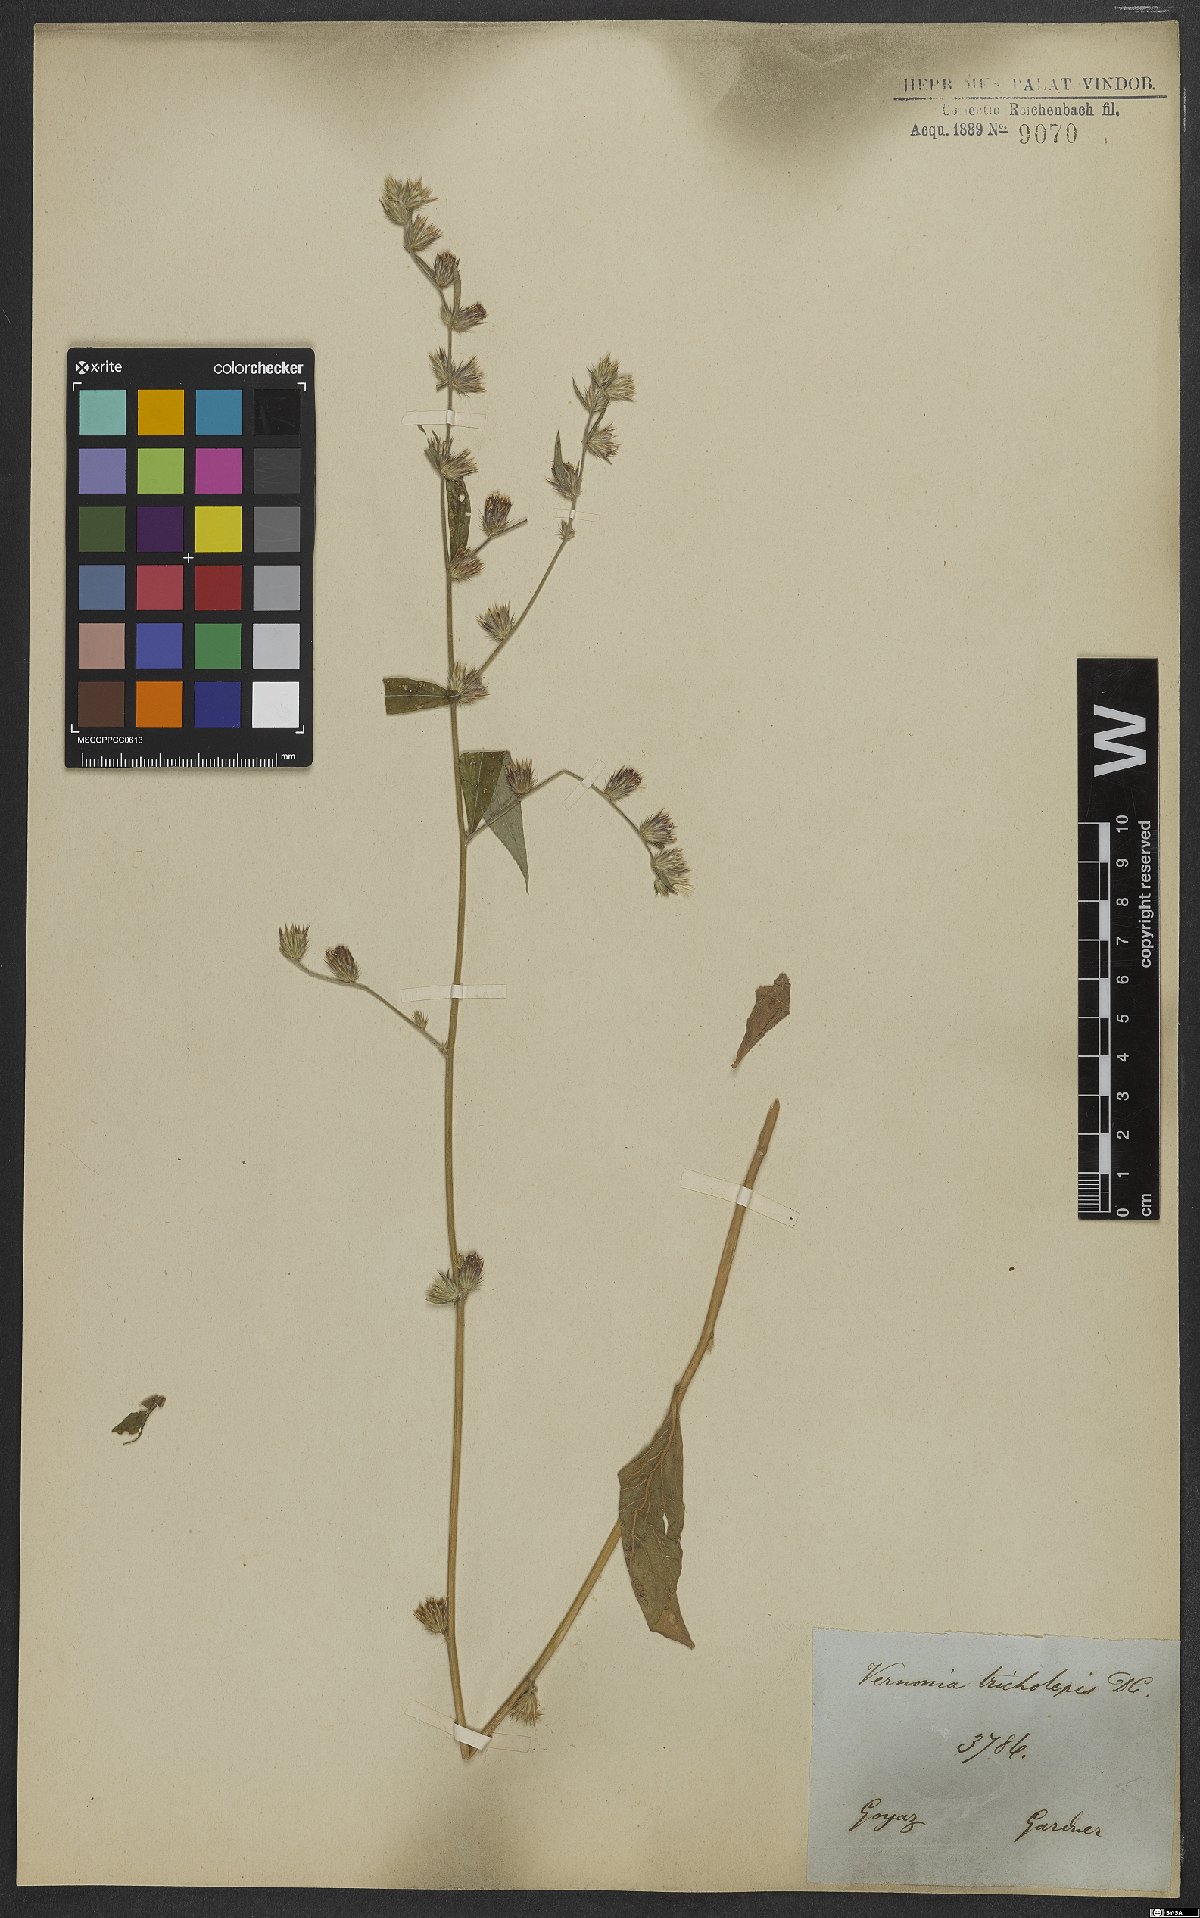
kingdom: Plantae
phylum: Tracheophyta
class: Magnoliopsida
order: Asterales
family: Asteraceae
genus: Lepidaploa
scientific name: Lepidaploa remotiflora
